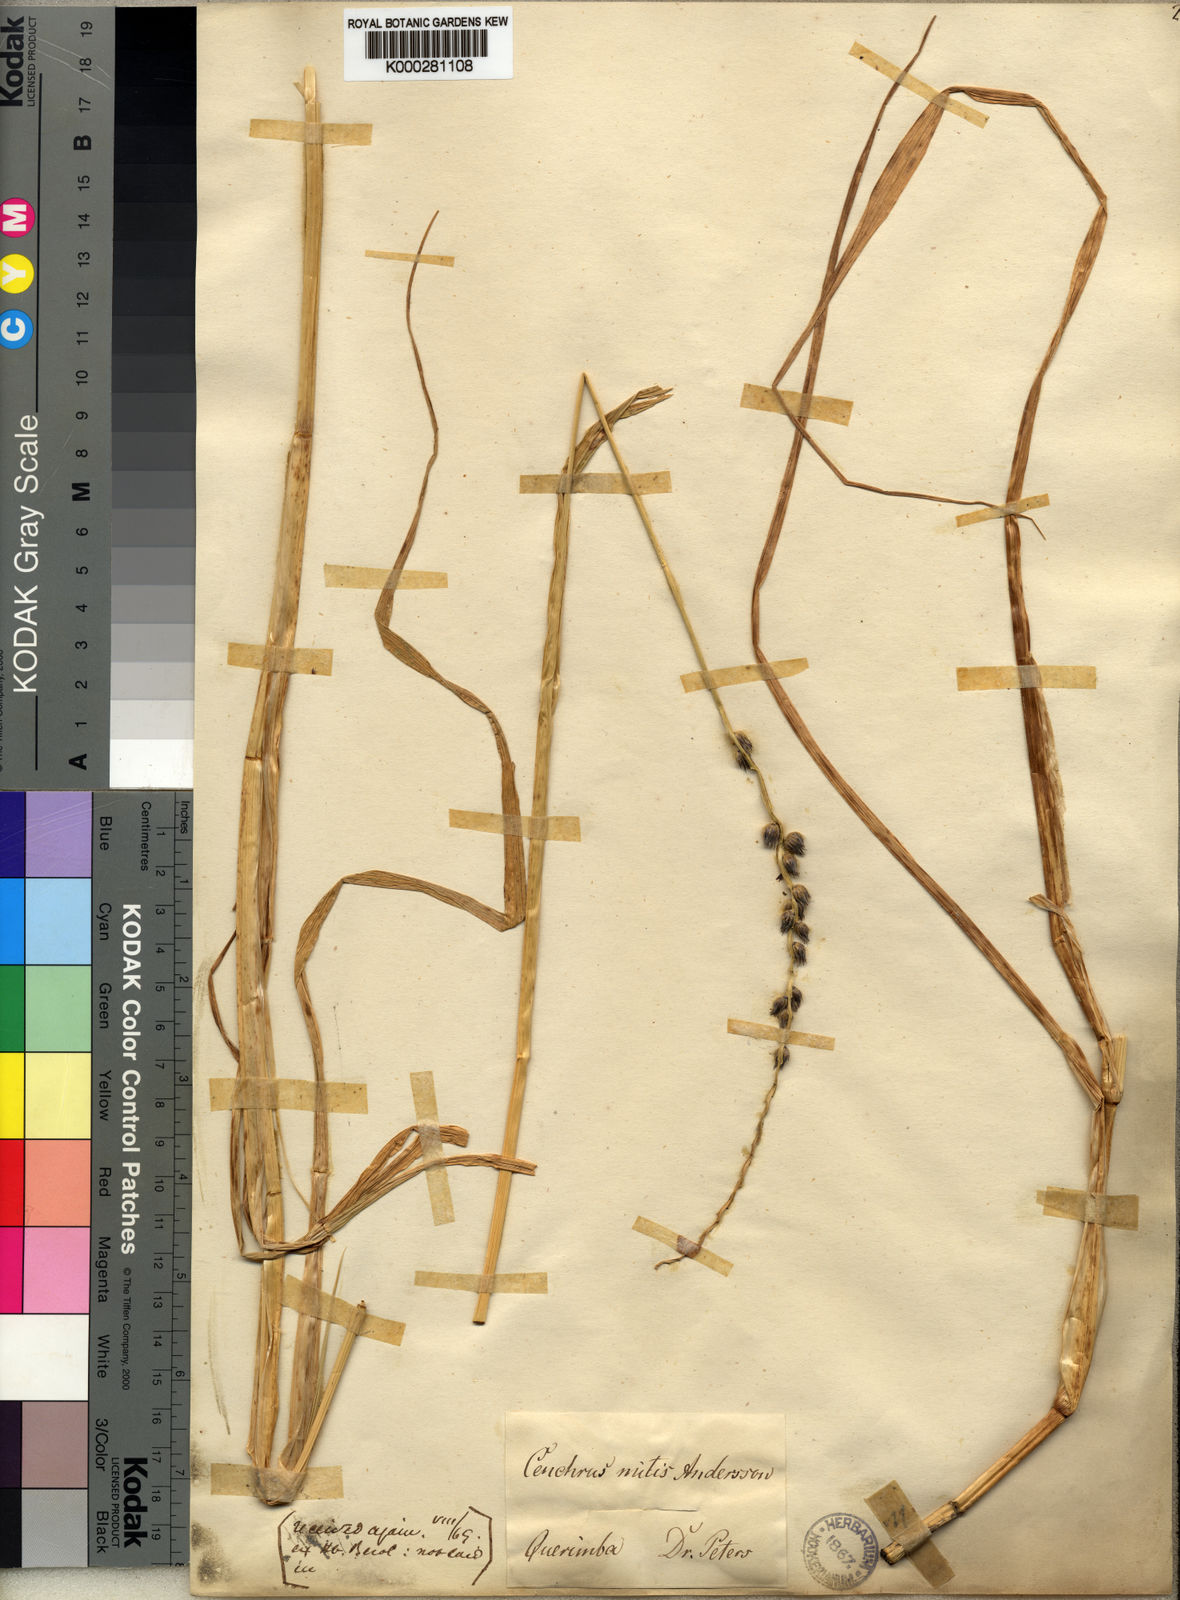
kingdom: Plantae
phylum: Tracheophyta
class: Liliopsida
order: Poales
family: Poaceae
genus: Cenchrus
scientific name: Cenchrus mitis
